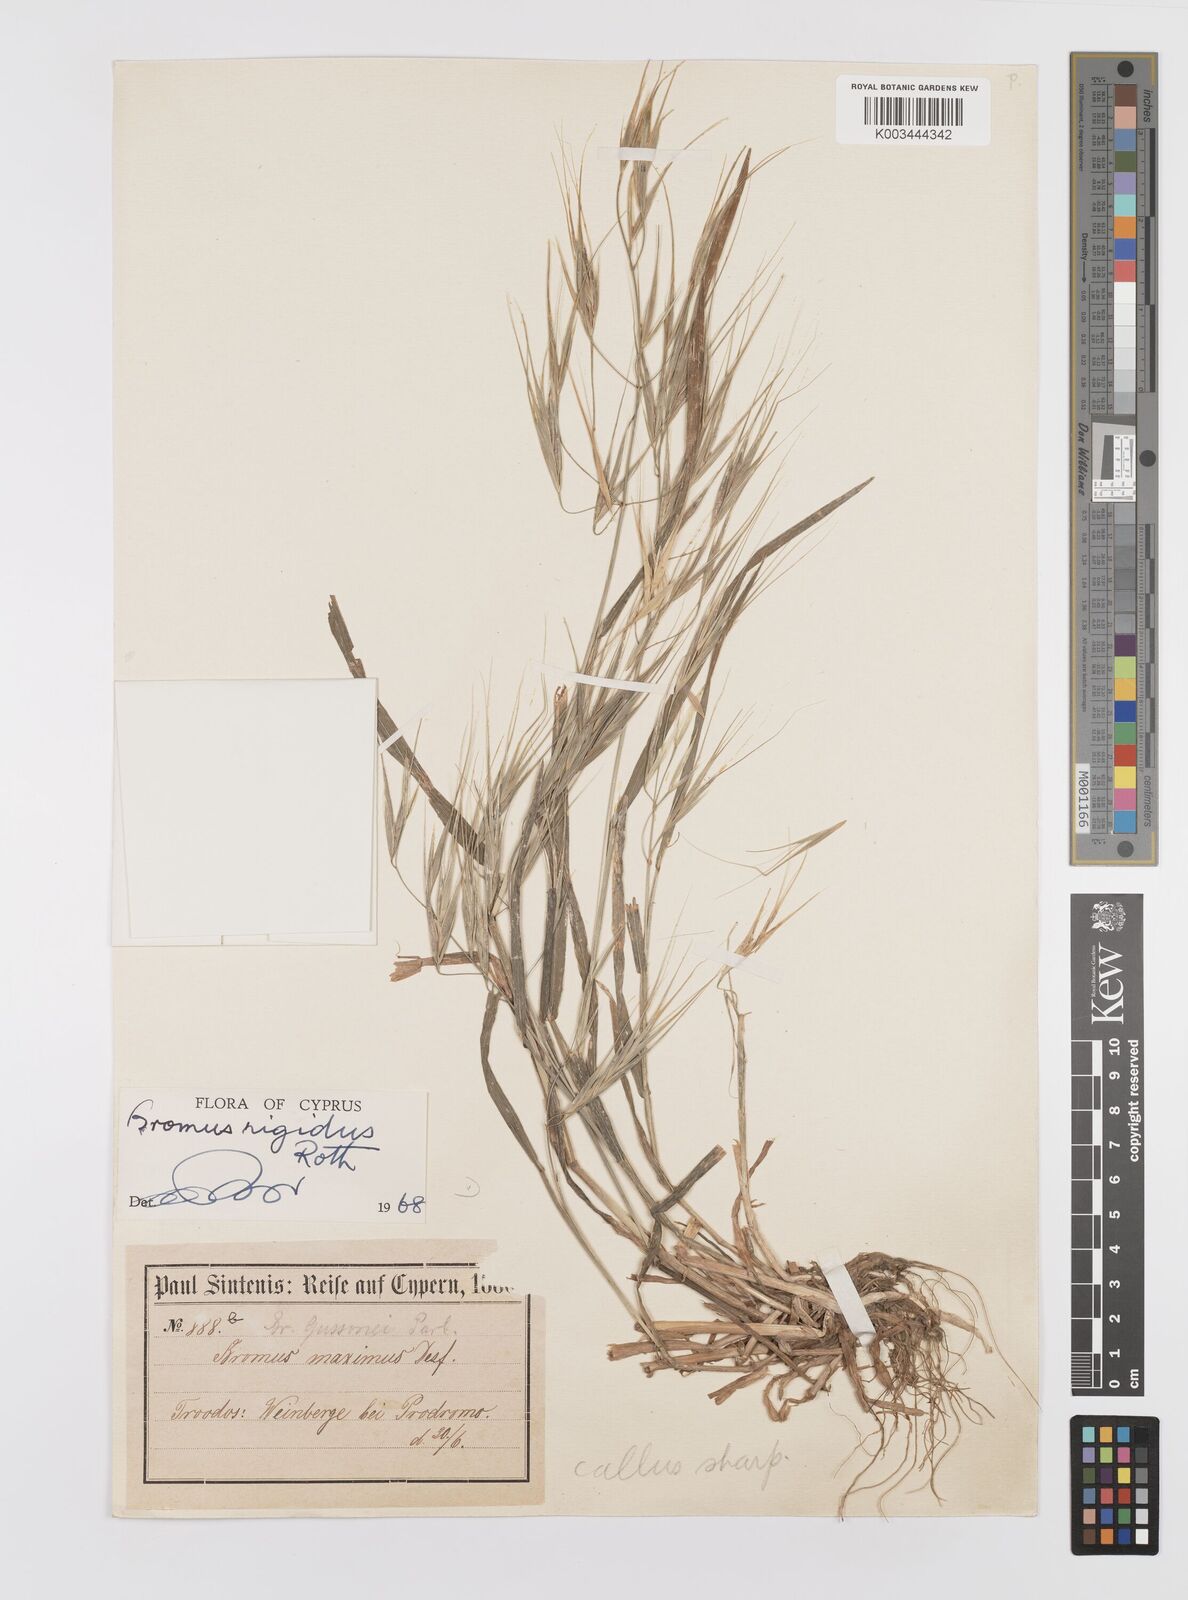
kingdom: Plantae
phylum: Tracheophyta
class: Liliopsida
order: Poales
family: Poaceae
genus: Bromus
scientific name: Bromus diandrus
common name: Ripgut brome
